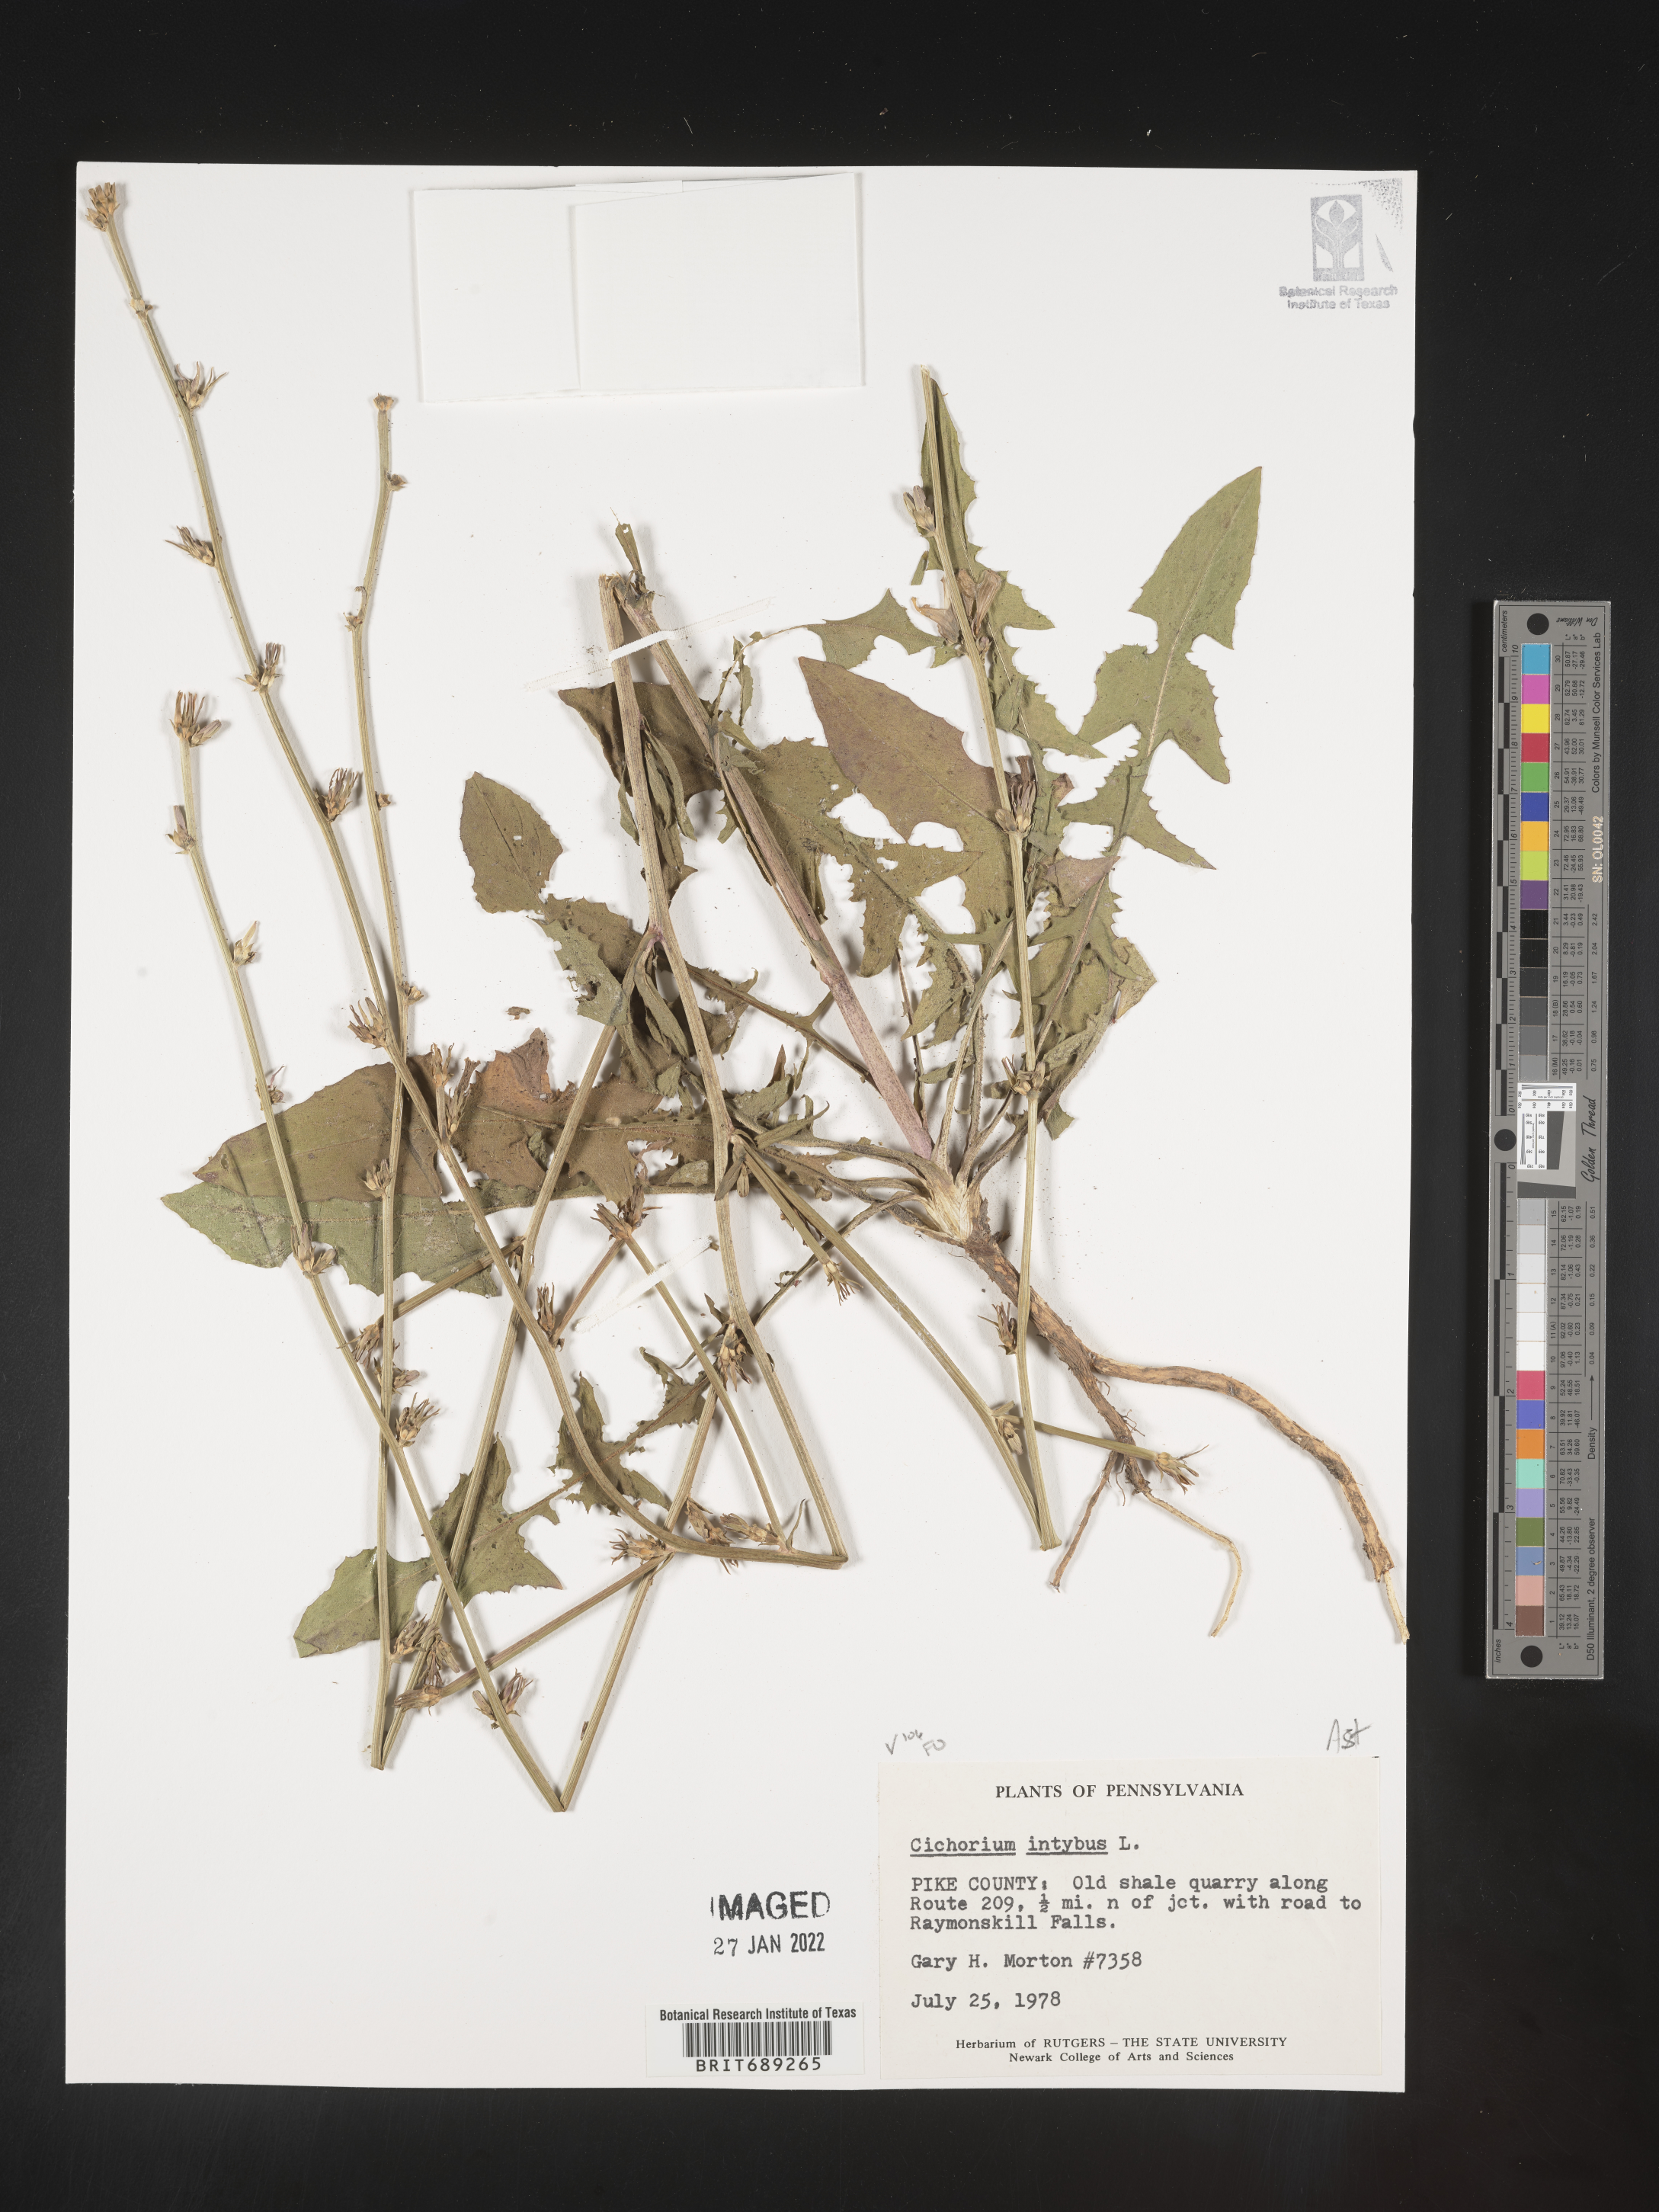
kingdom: Plantae
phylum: Tracheophyta
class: Magnoliopsida
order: Asterales
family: Asteraceae
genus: Cichorium
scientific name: Cichorium intybus
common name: Chicory
